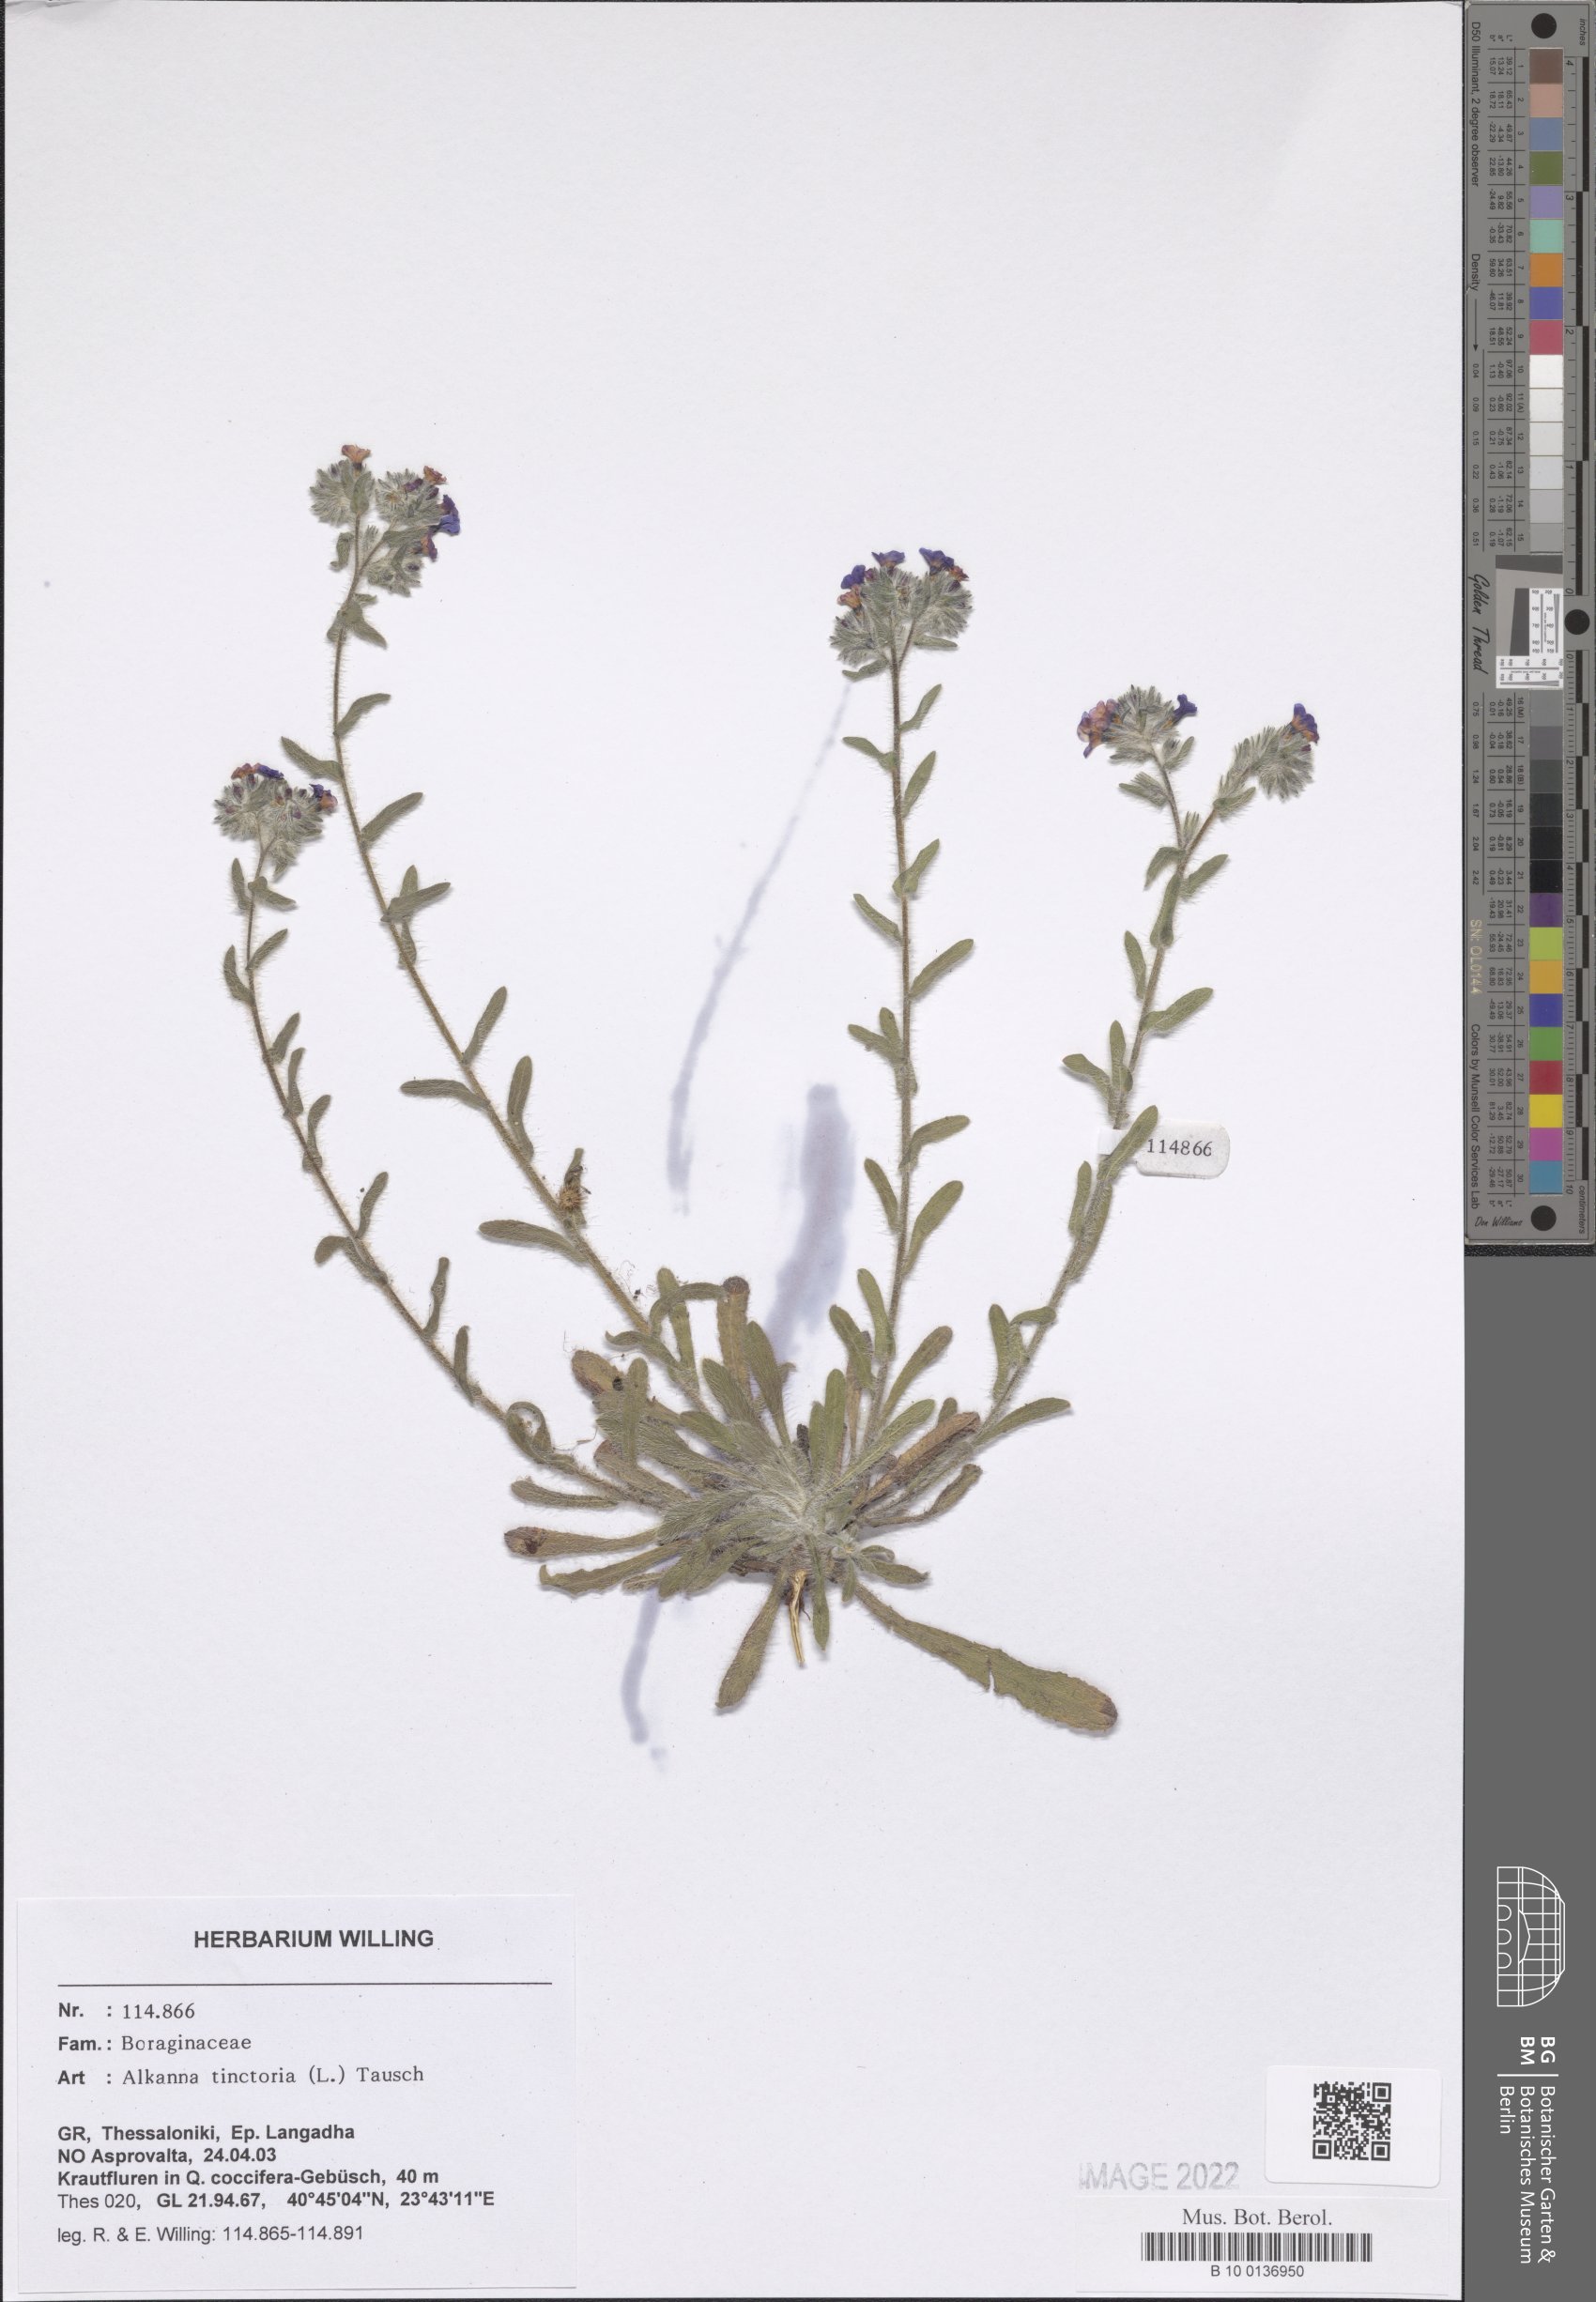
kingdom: Plantae
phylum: Tracheophyta
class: Magnoliopsida
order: Boraginales
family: Boraginaceae
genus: Alkanna
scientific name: Alkanna tinctoria
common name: Dyer's-alkanet
